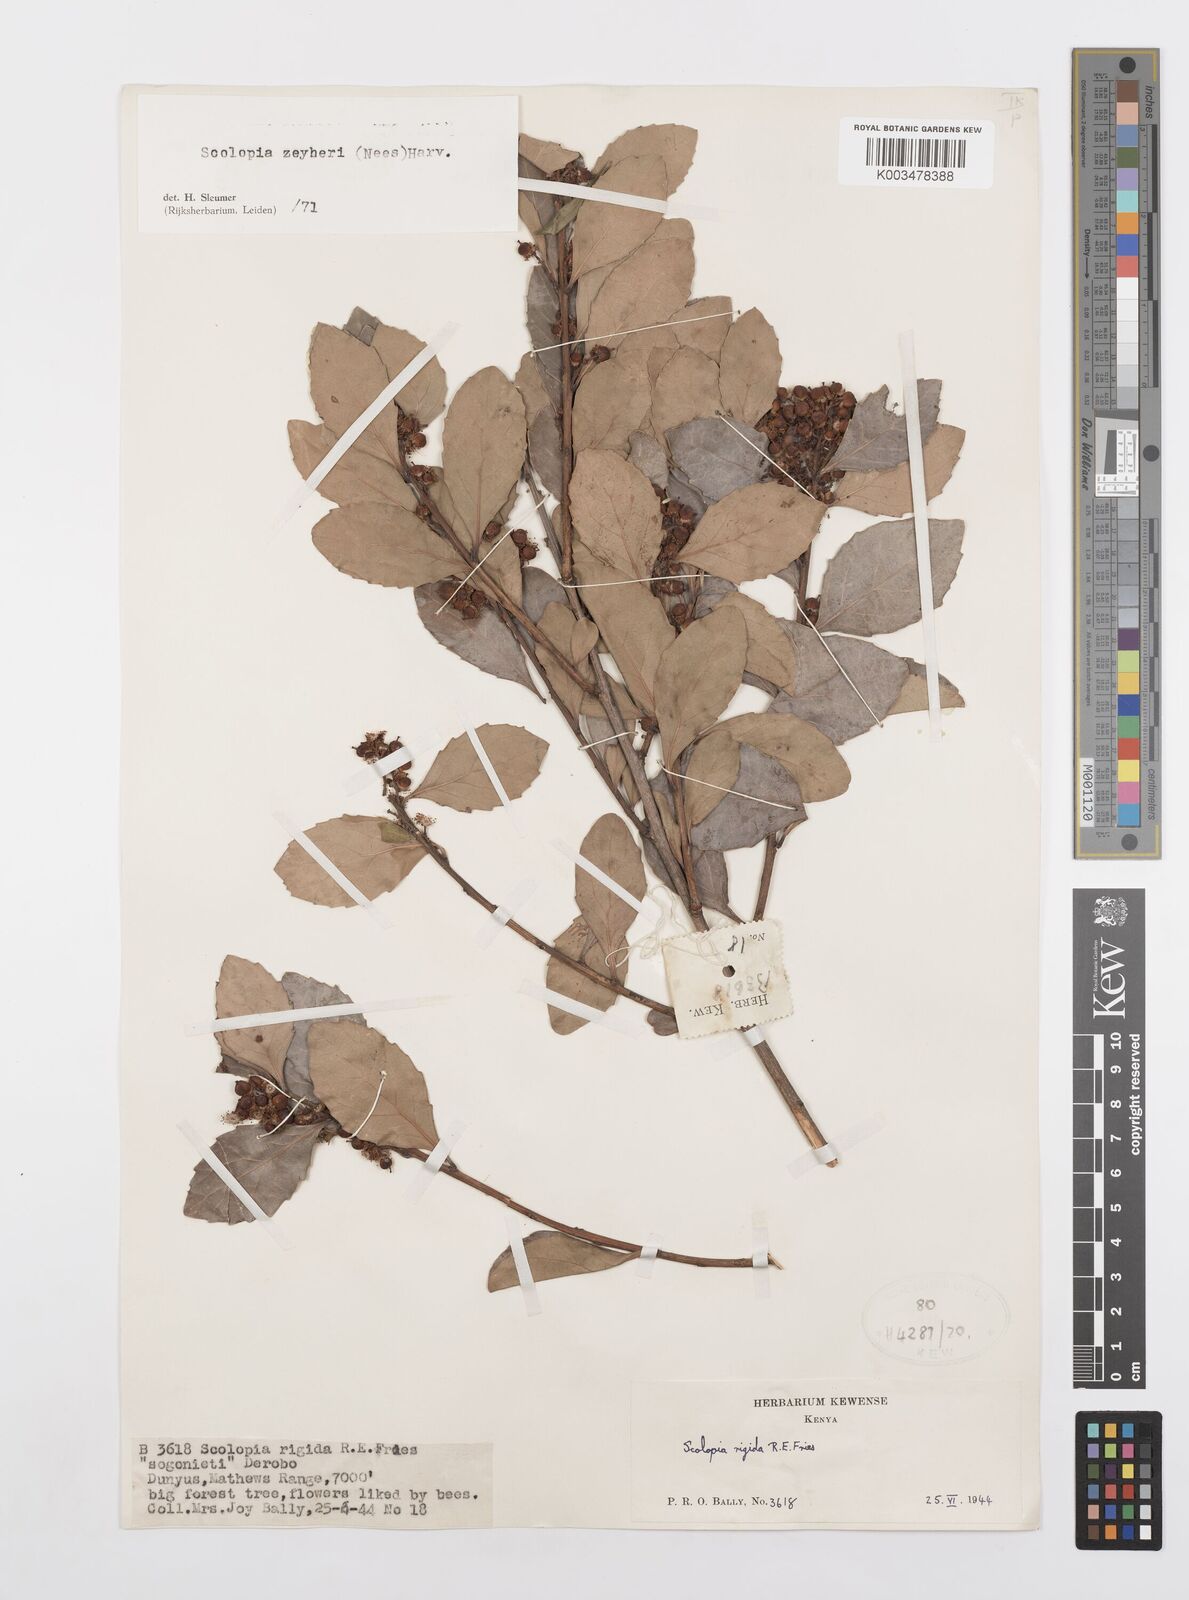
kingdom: Plantae
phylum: Tracheophyta
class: Magnoliopsida
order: Malpighiales
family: Salicaceae
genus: Scolopia
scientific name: Scolopia zeyheri
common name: Thorn pear
